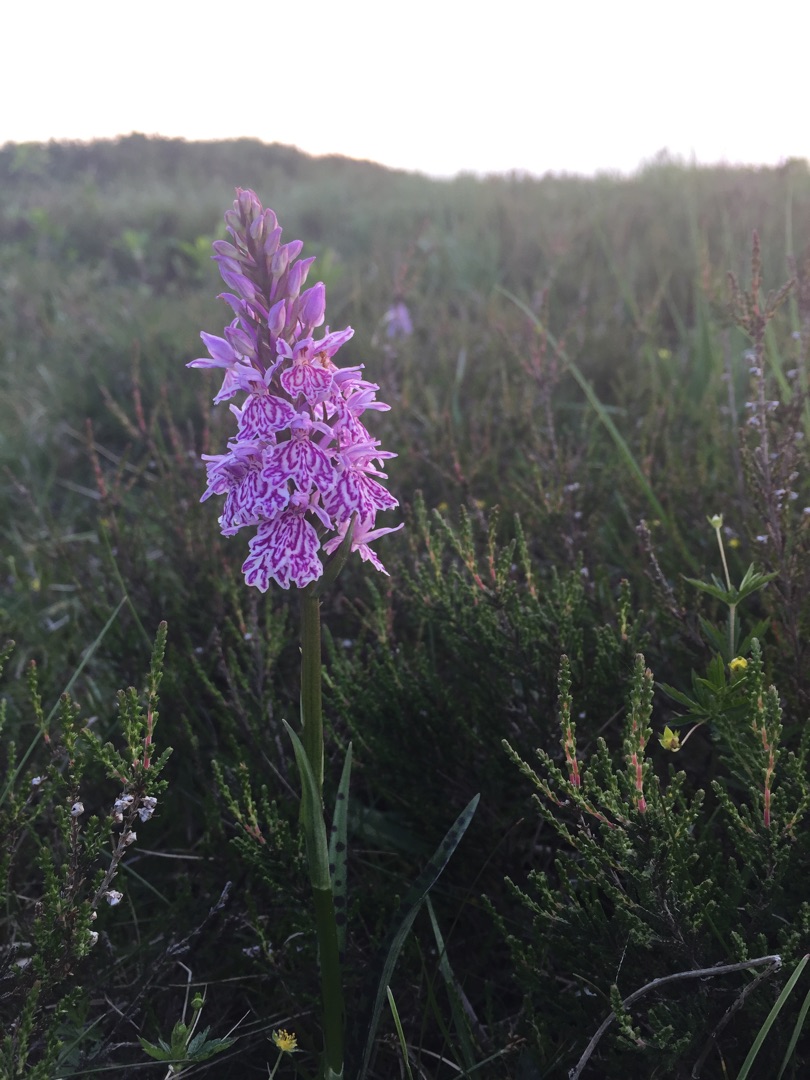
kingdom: Plantae
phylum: Tracheophyta
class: Liliopsida
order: Asparagales
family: Orchidaceae
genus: Dactylorhiza
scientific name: Dactylorhiza maculata
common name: Plettet gøgeurt
